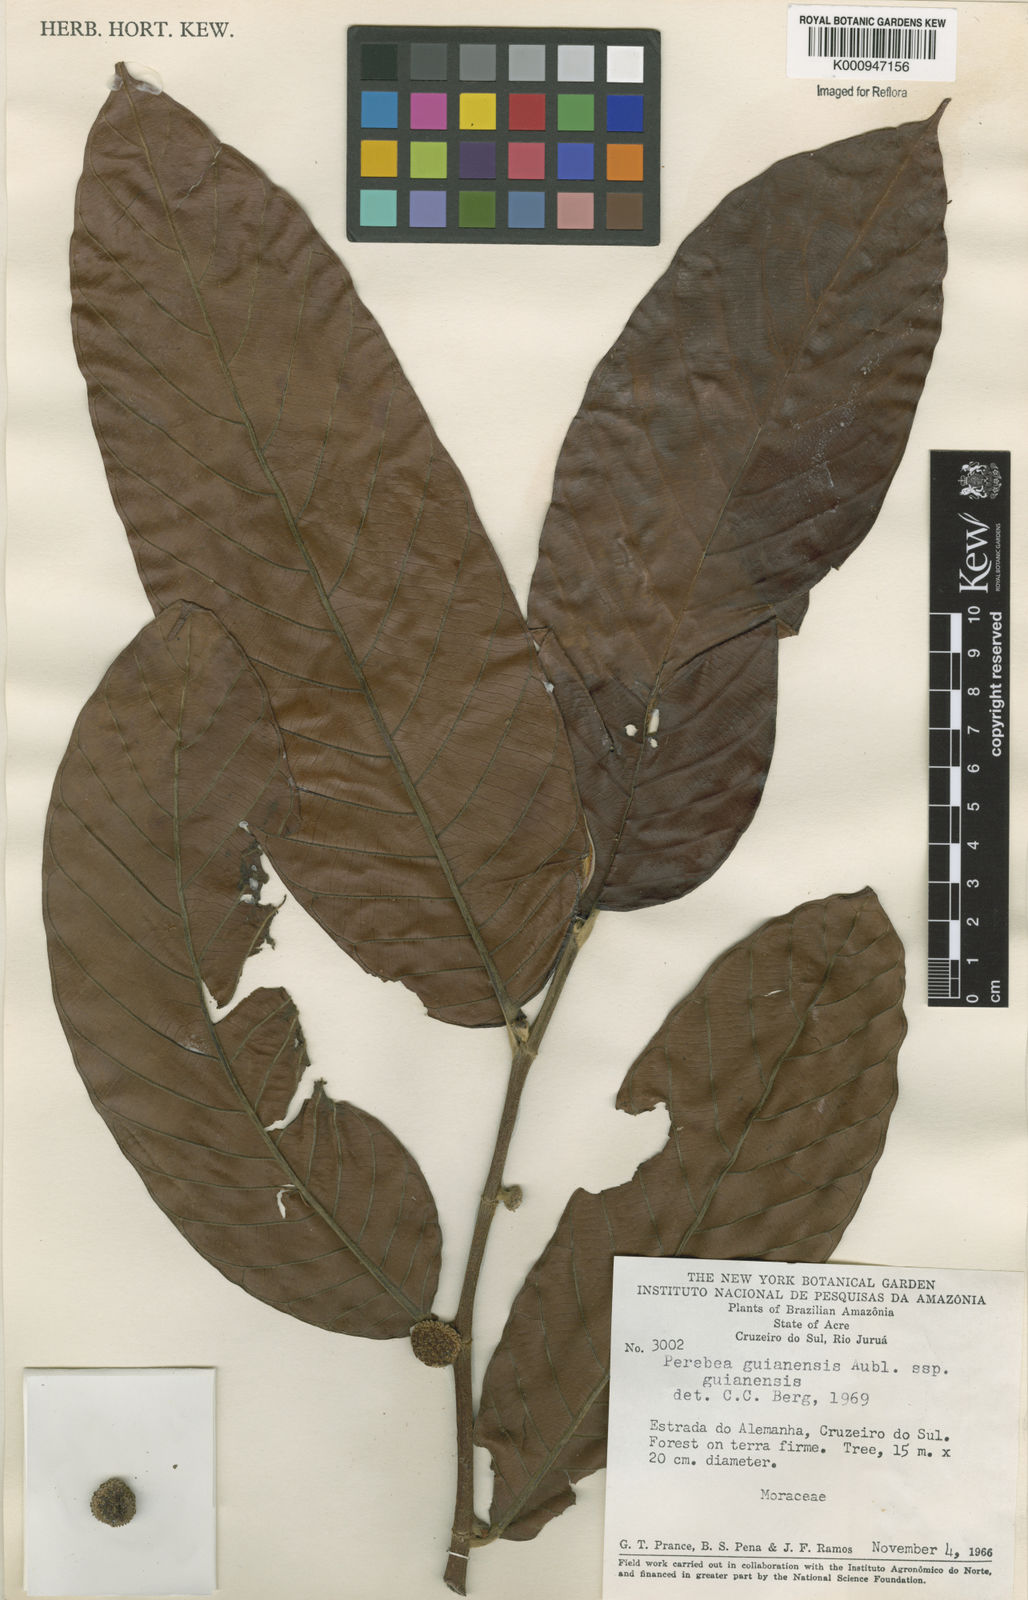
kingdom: Plantae
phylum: Tracheophyta
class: Magnoliopsida
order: Rosales
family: Moraceae
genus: Perebea
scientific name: Perebea guianensis
